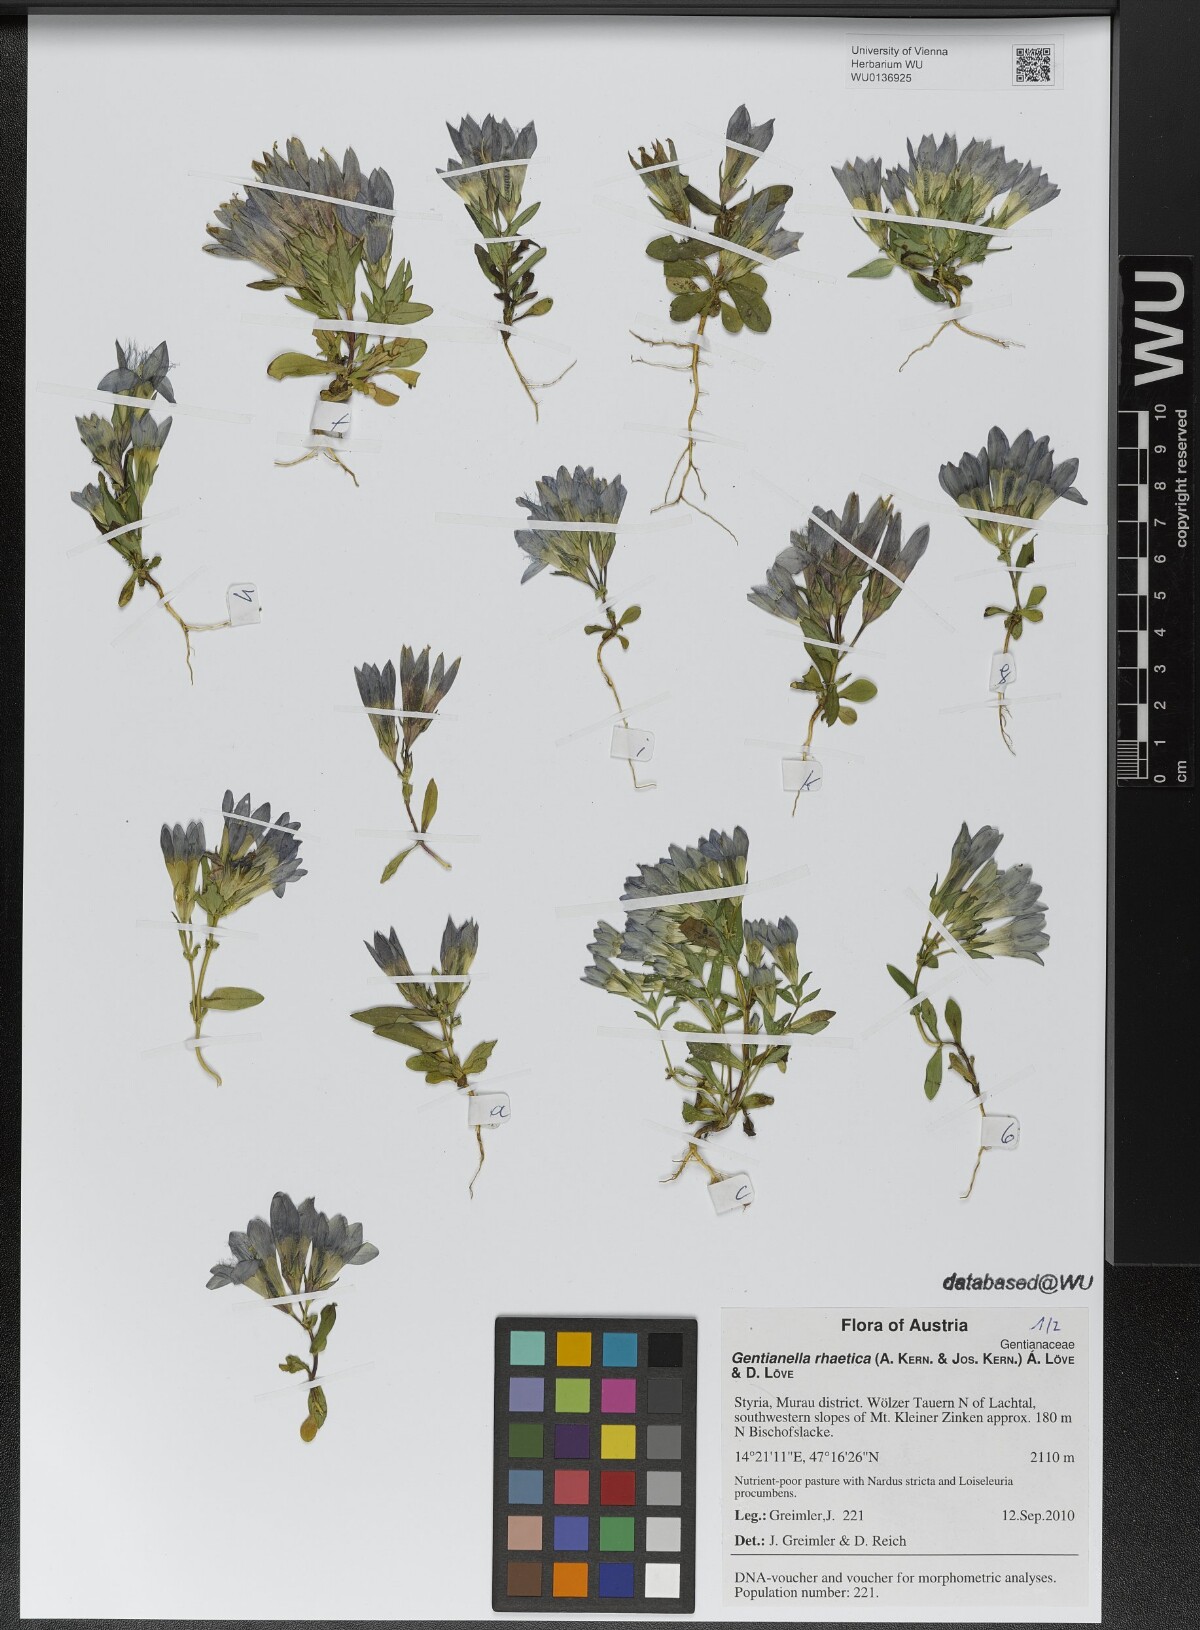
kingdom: Plantae
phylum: Tracheophyta
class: Magnoliopsida
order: Gentianales
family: Gentianaceae
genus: Gentianella
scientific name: Gentianella rhaetica
